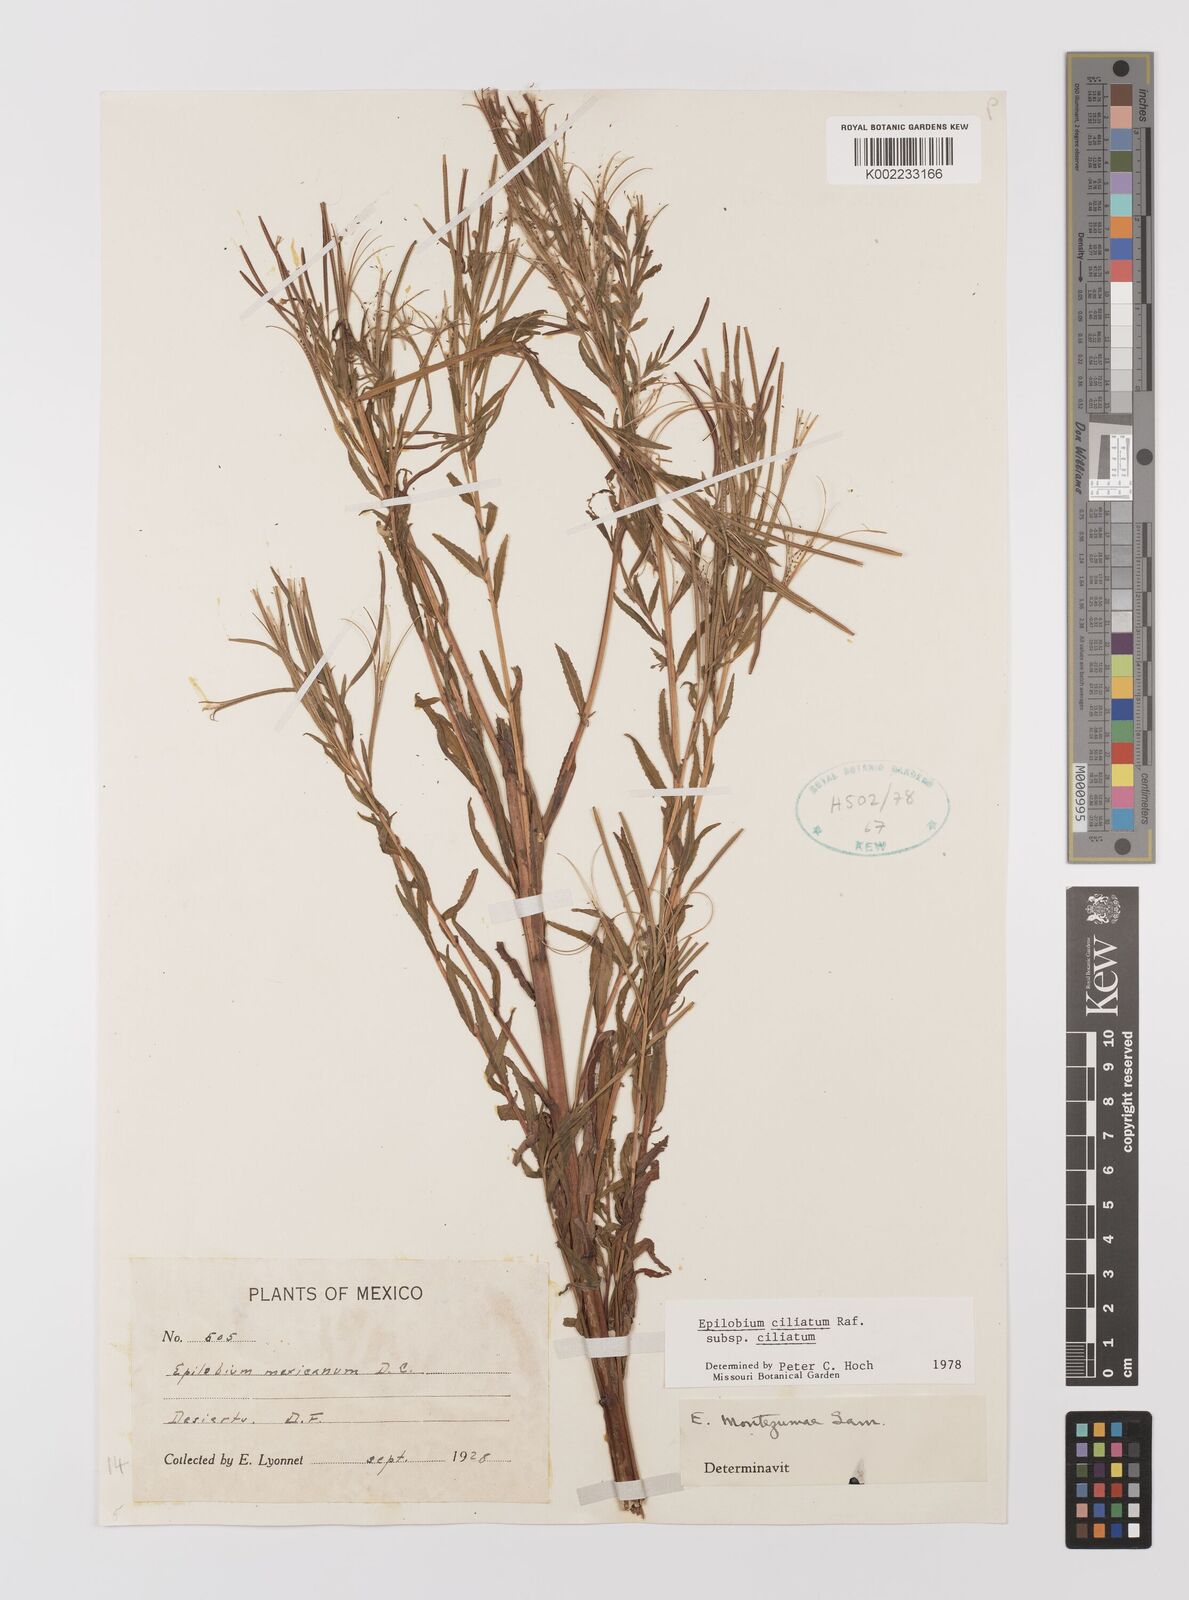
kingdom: Plantae
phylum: Tracheophyta
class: Magnoliopsida
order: Myrtales
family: Onagraceae
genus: Epilobium
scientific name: Epilobium ciliatum
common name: American willowherb
